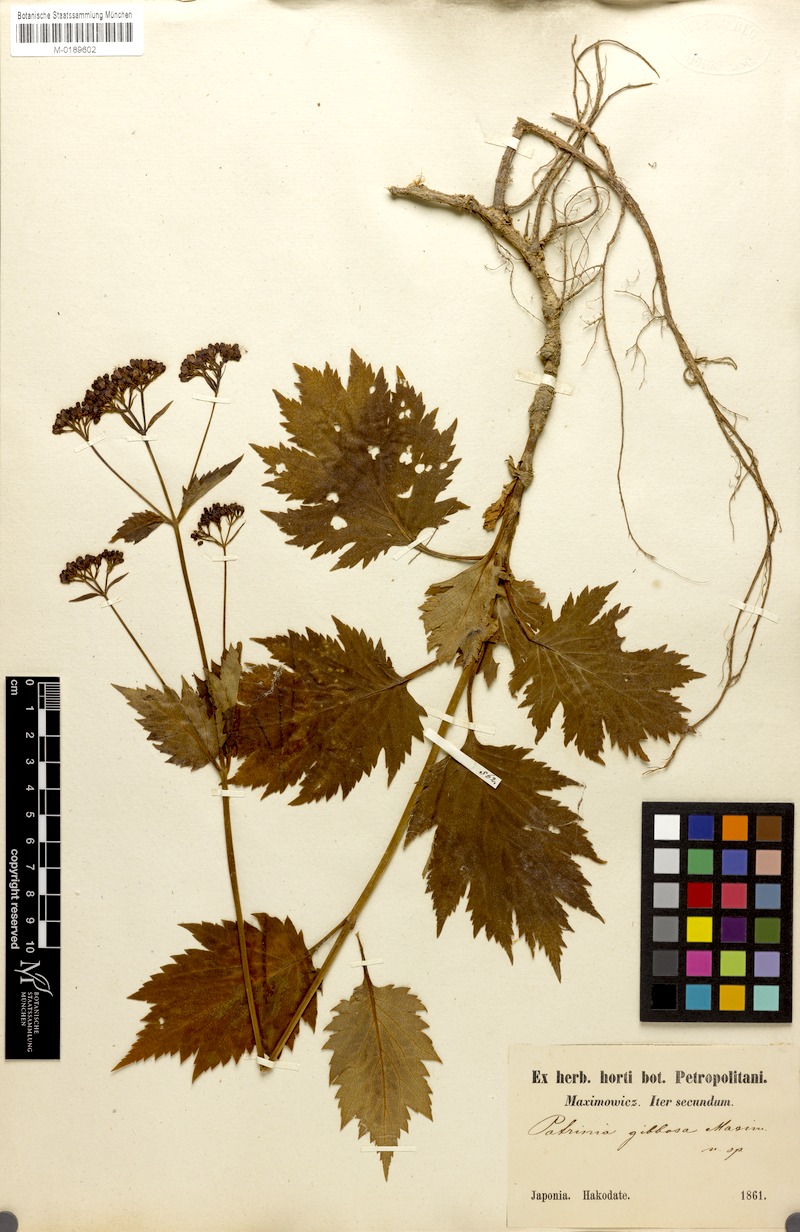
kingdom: Plantae
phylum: Tracheophyta
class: Magnoliopsida
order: Dipsacales
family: Caprifoliaceae
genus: Patrinia
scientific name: Patrinia gibbosa
